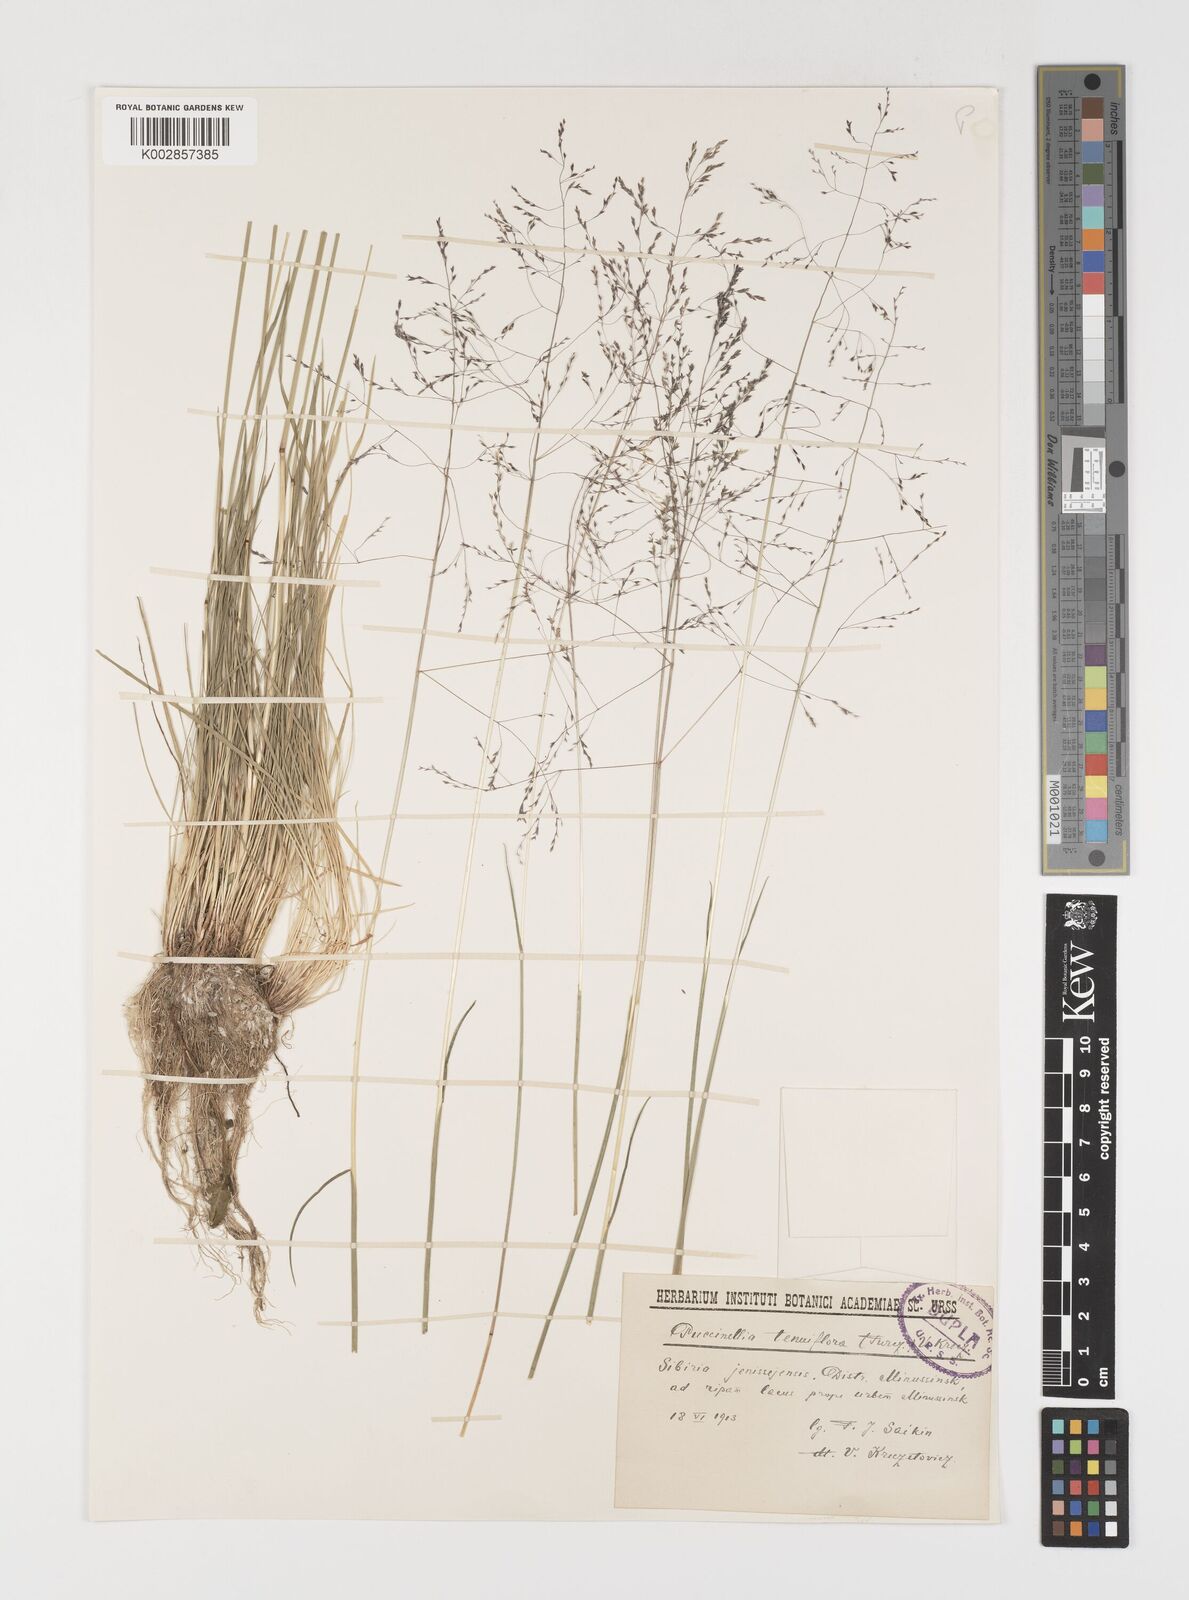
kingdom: Plantae
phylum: Tracheophyta
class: Liliopsida
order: Poales
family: Poaceae
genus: Puccinellia
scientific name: Puccinellia tenuiflora
